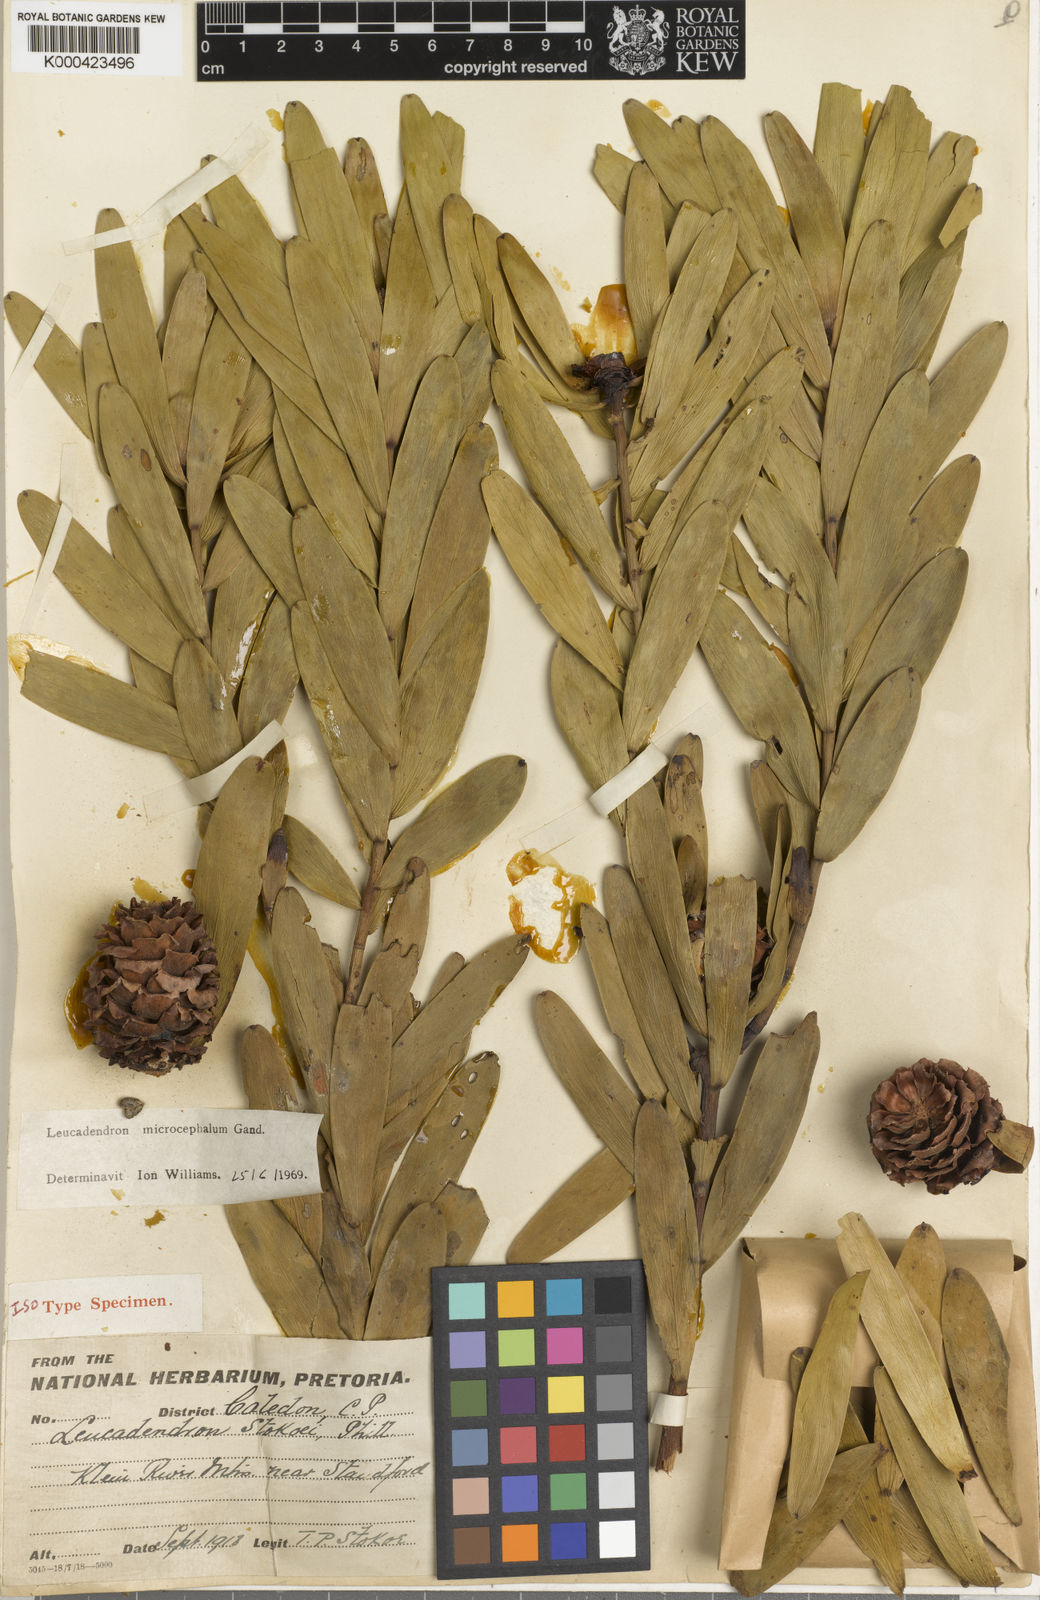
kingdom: Plantae
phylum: Tracheophyta
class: Magnoliopsida
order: Proteales
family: Proteaceae
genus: Leucadendron
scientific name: Leucadendron microcephalum
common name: Oilbract conebush
